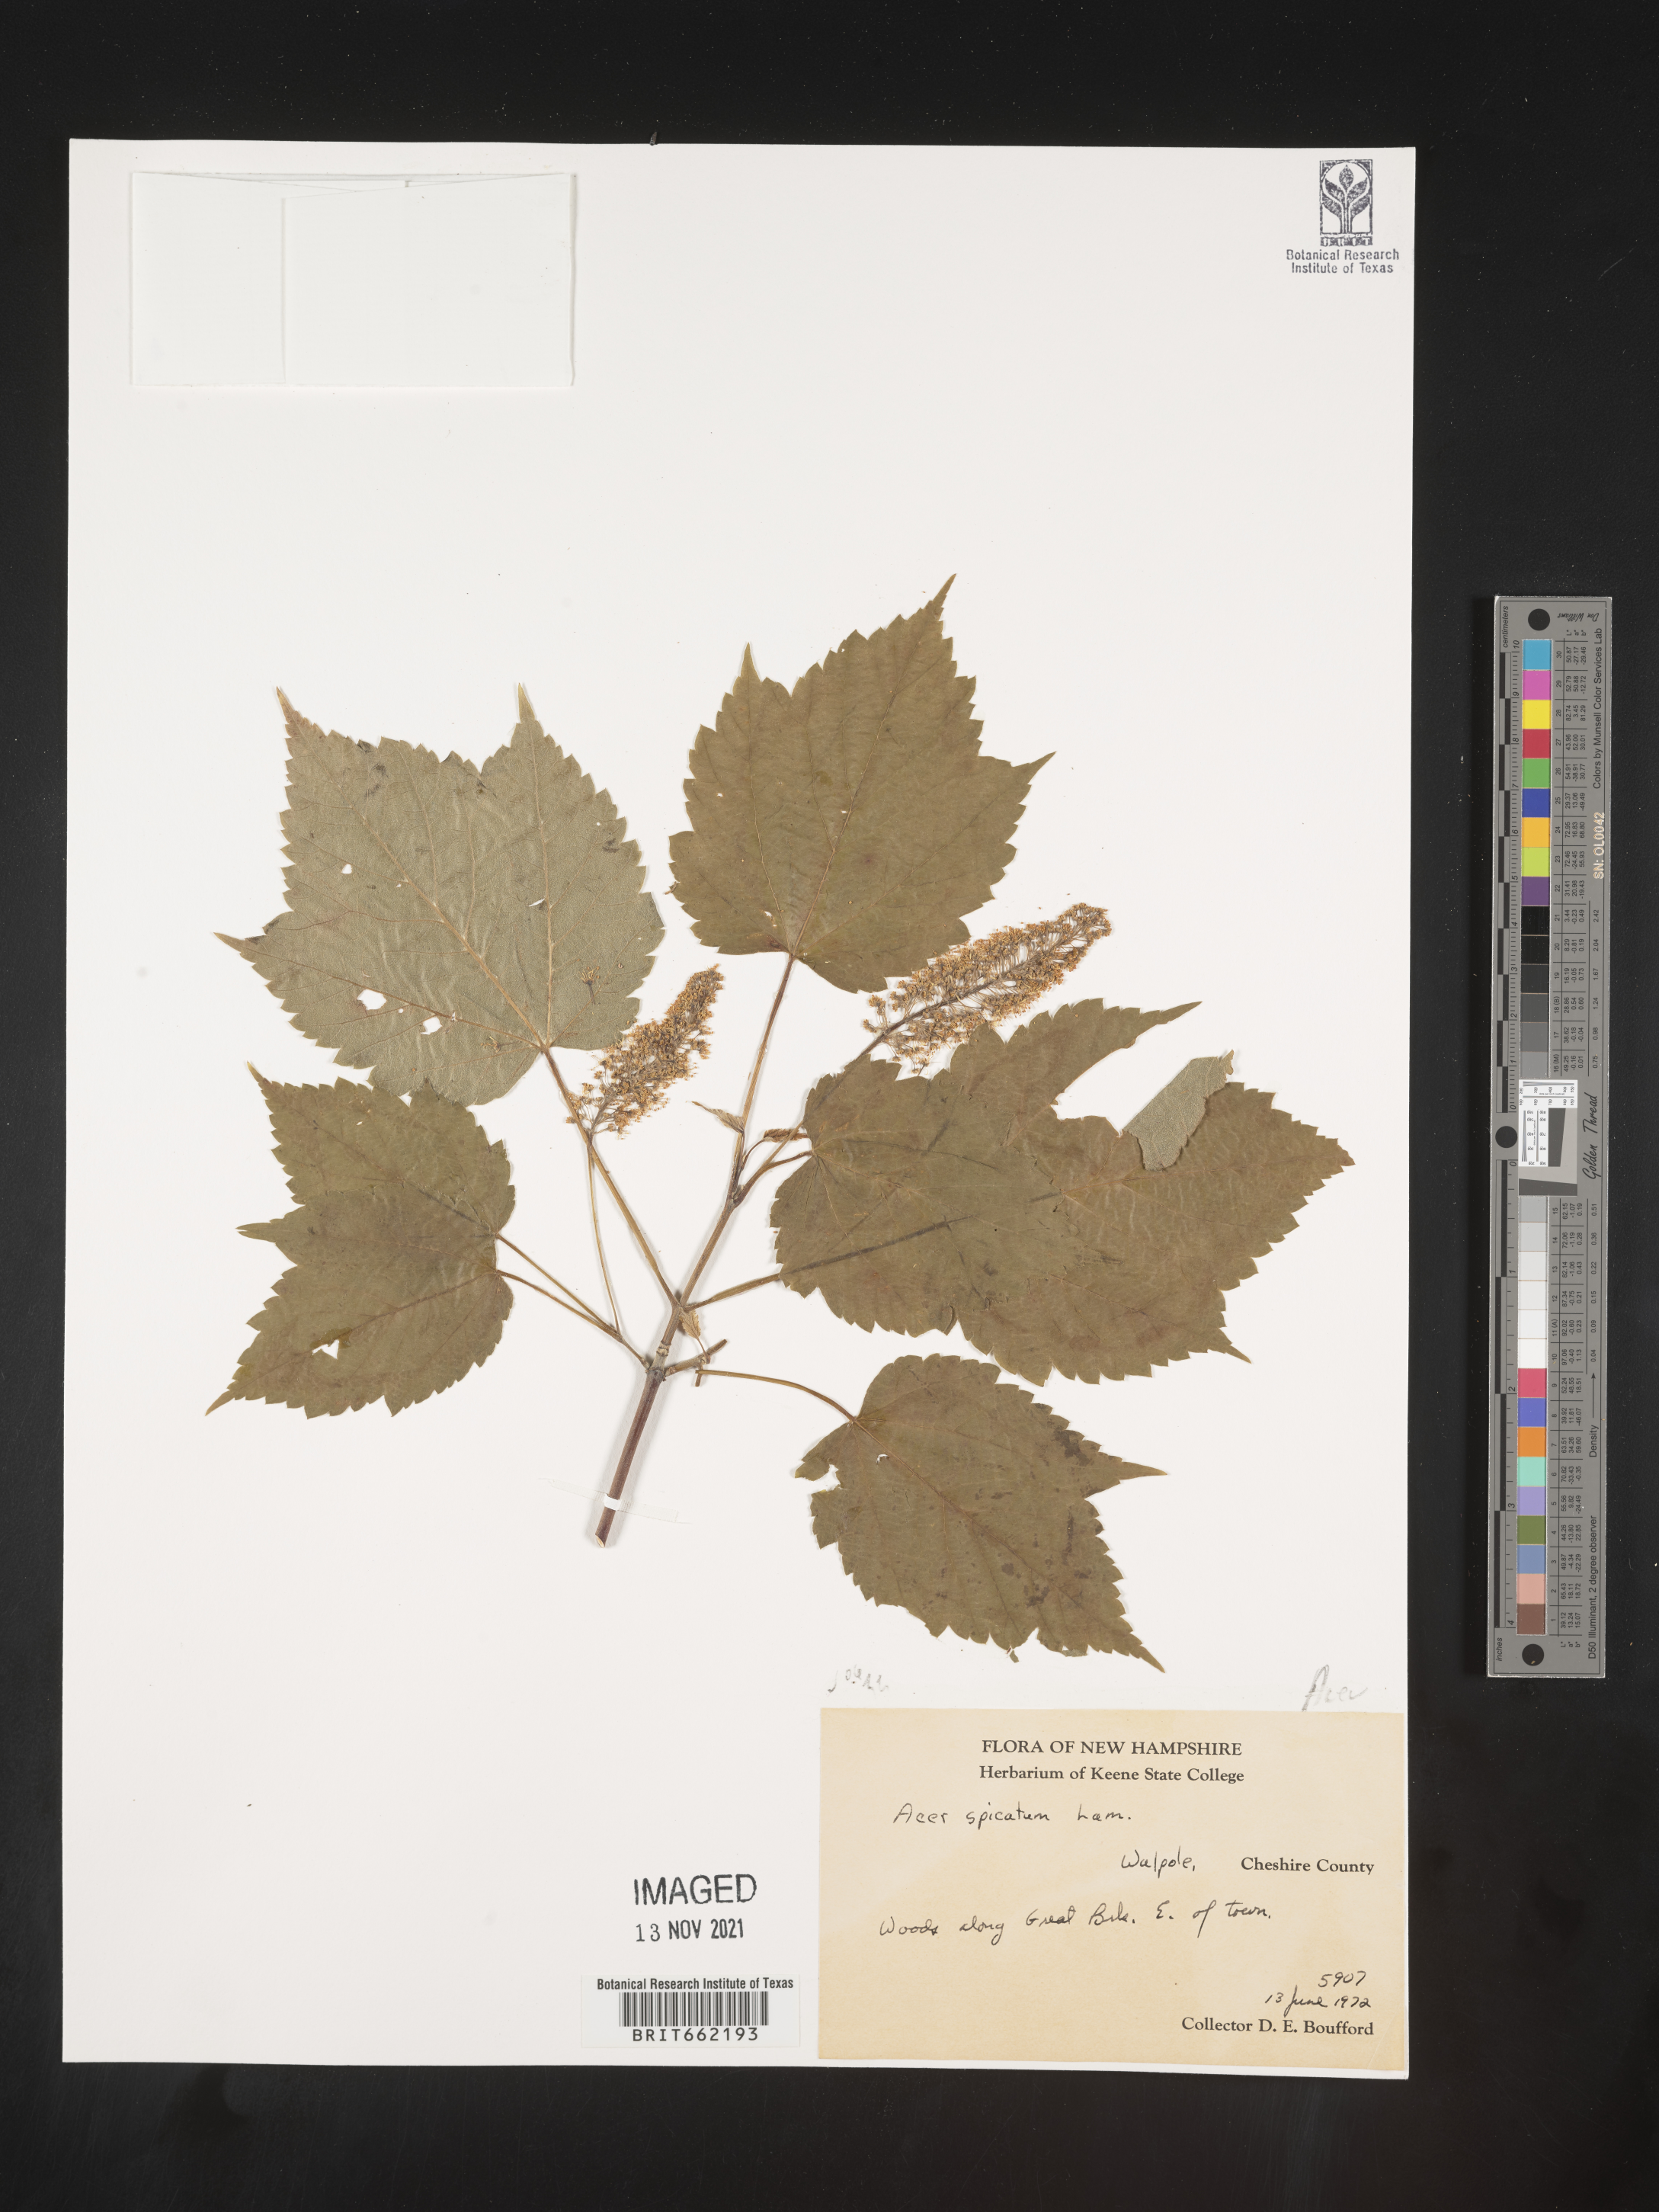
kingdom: Plantae
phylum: Tracheophyta
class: Magnoliopsida
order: Sapindales
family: Sapindaceae
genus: Acer
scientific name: Acer spicatum
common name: Mountain maple
